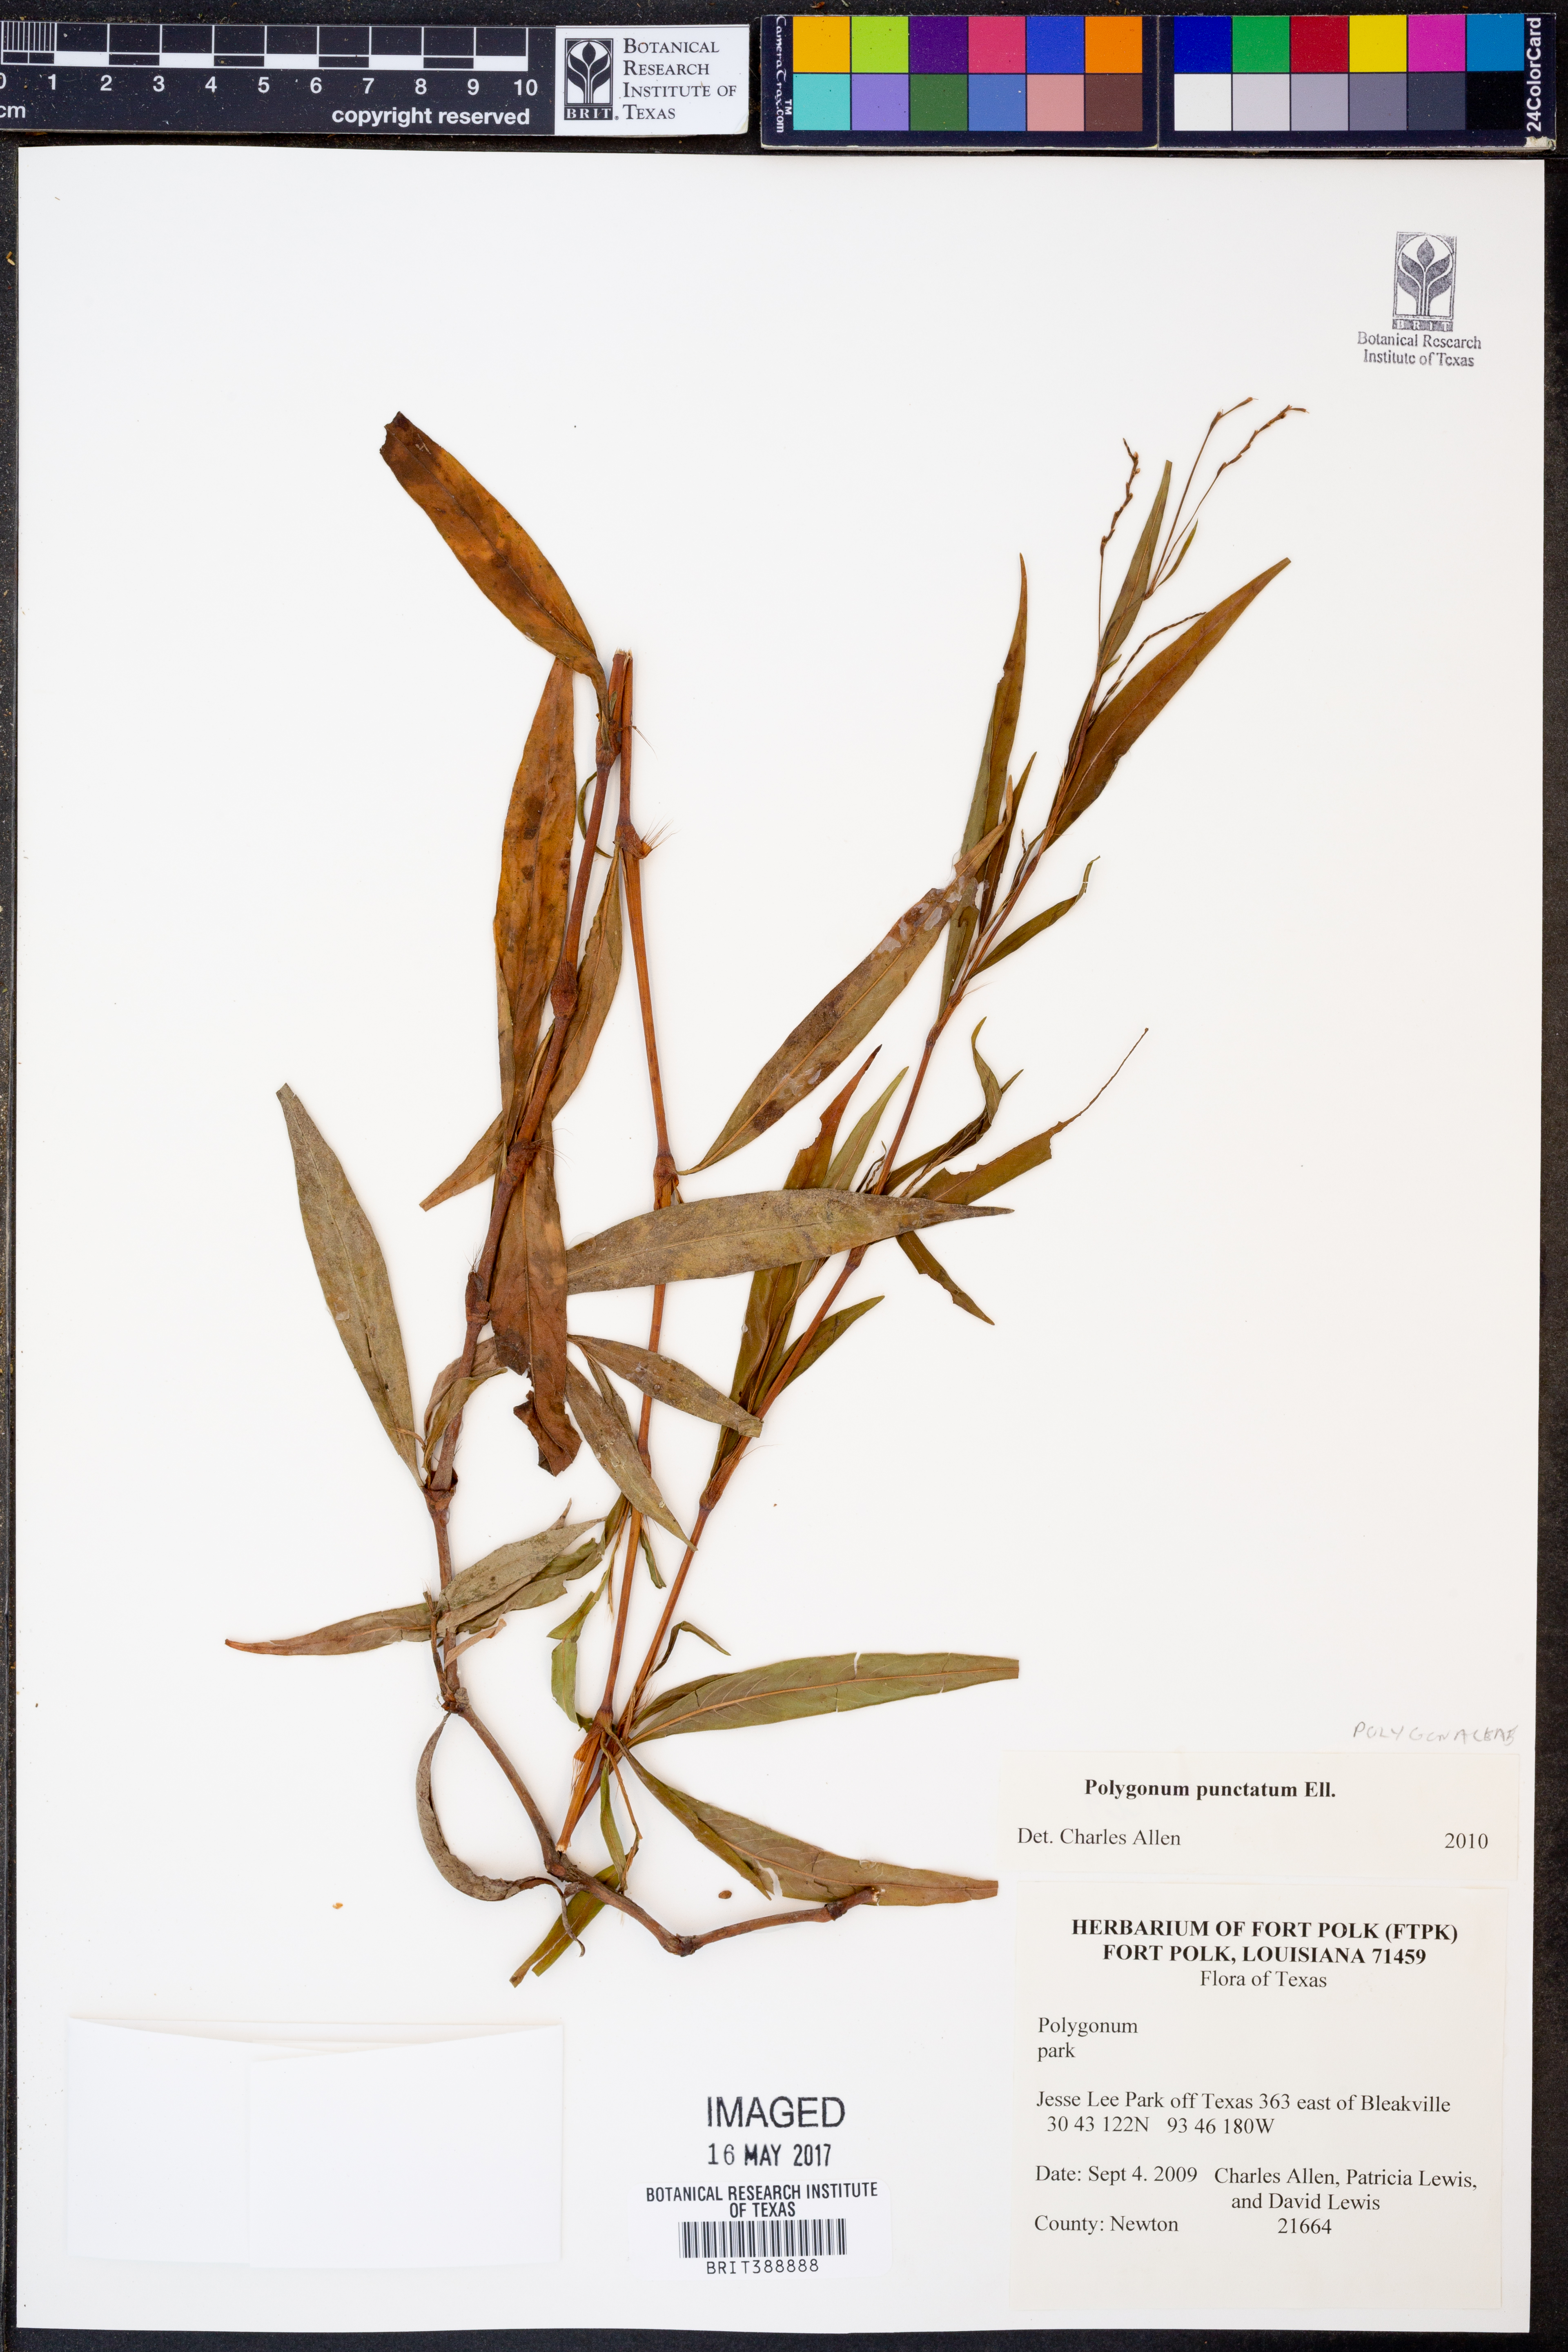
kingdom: Plantae
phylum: Tracheophyta
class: Magnoliopsida
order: Caryophyllales
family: Polygonaceae
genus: Persicaria
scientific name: Persicaria punctata
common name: Dotted smartweed
